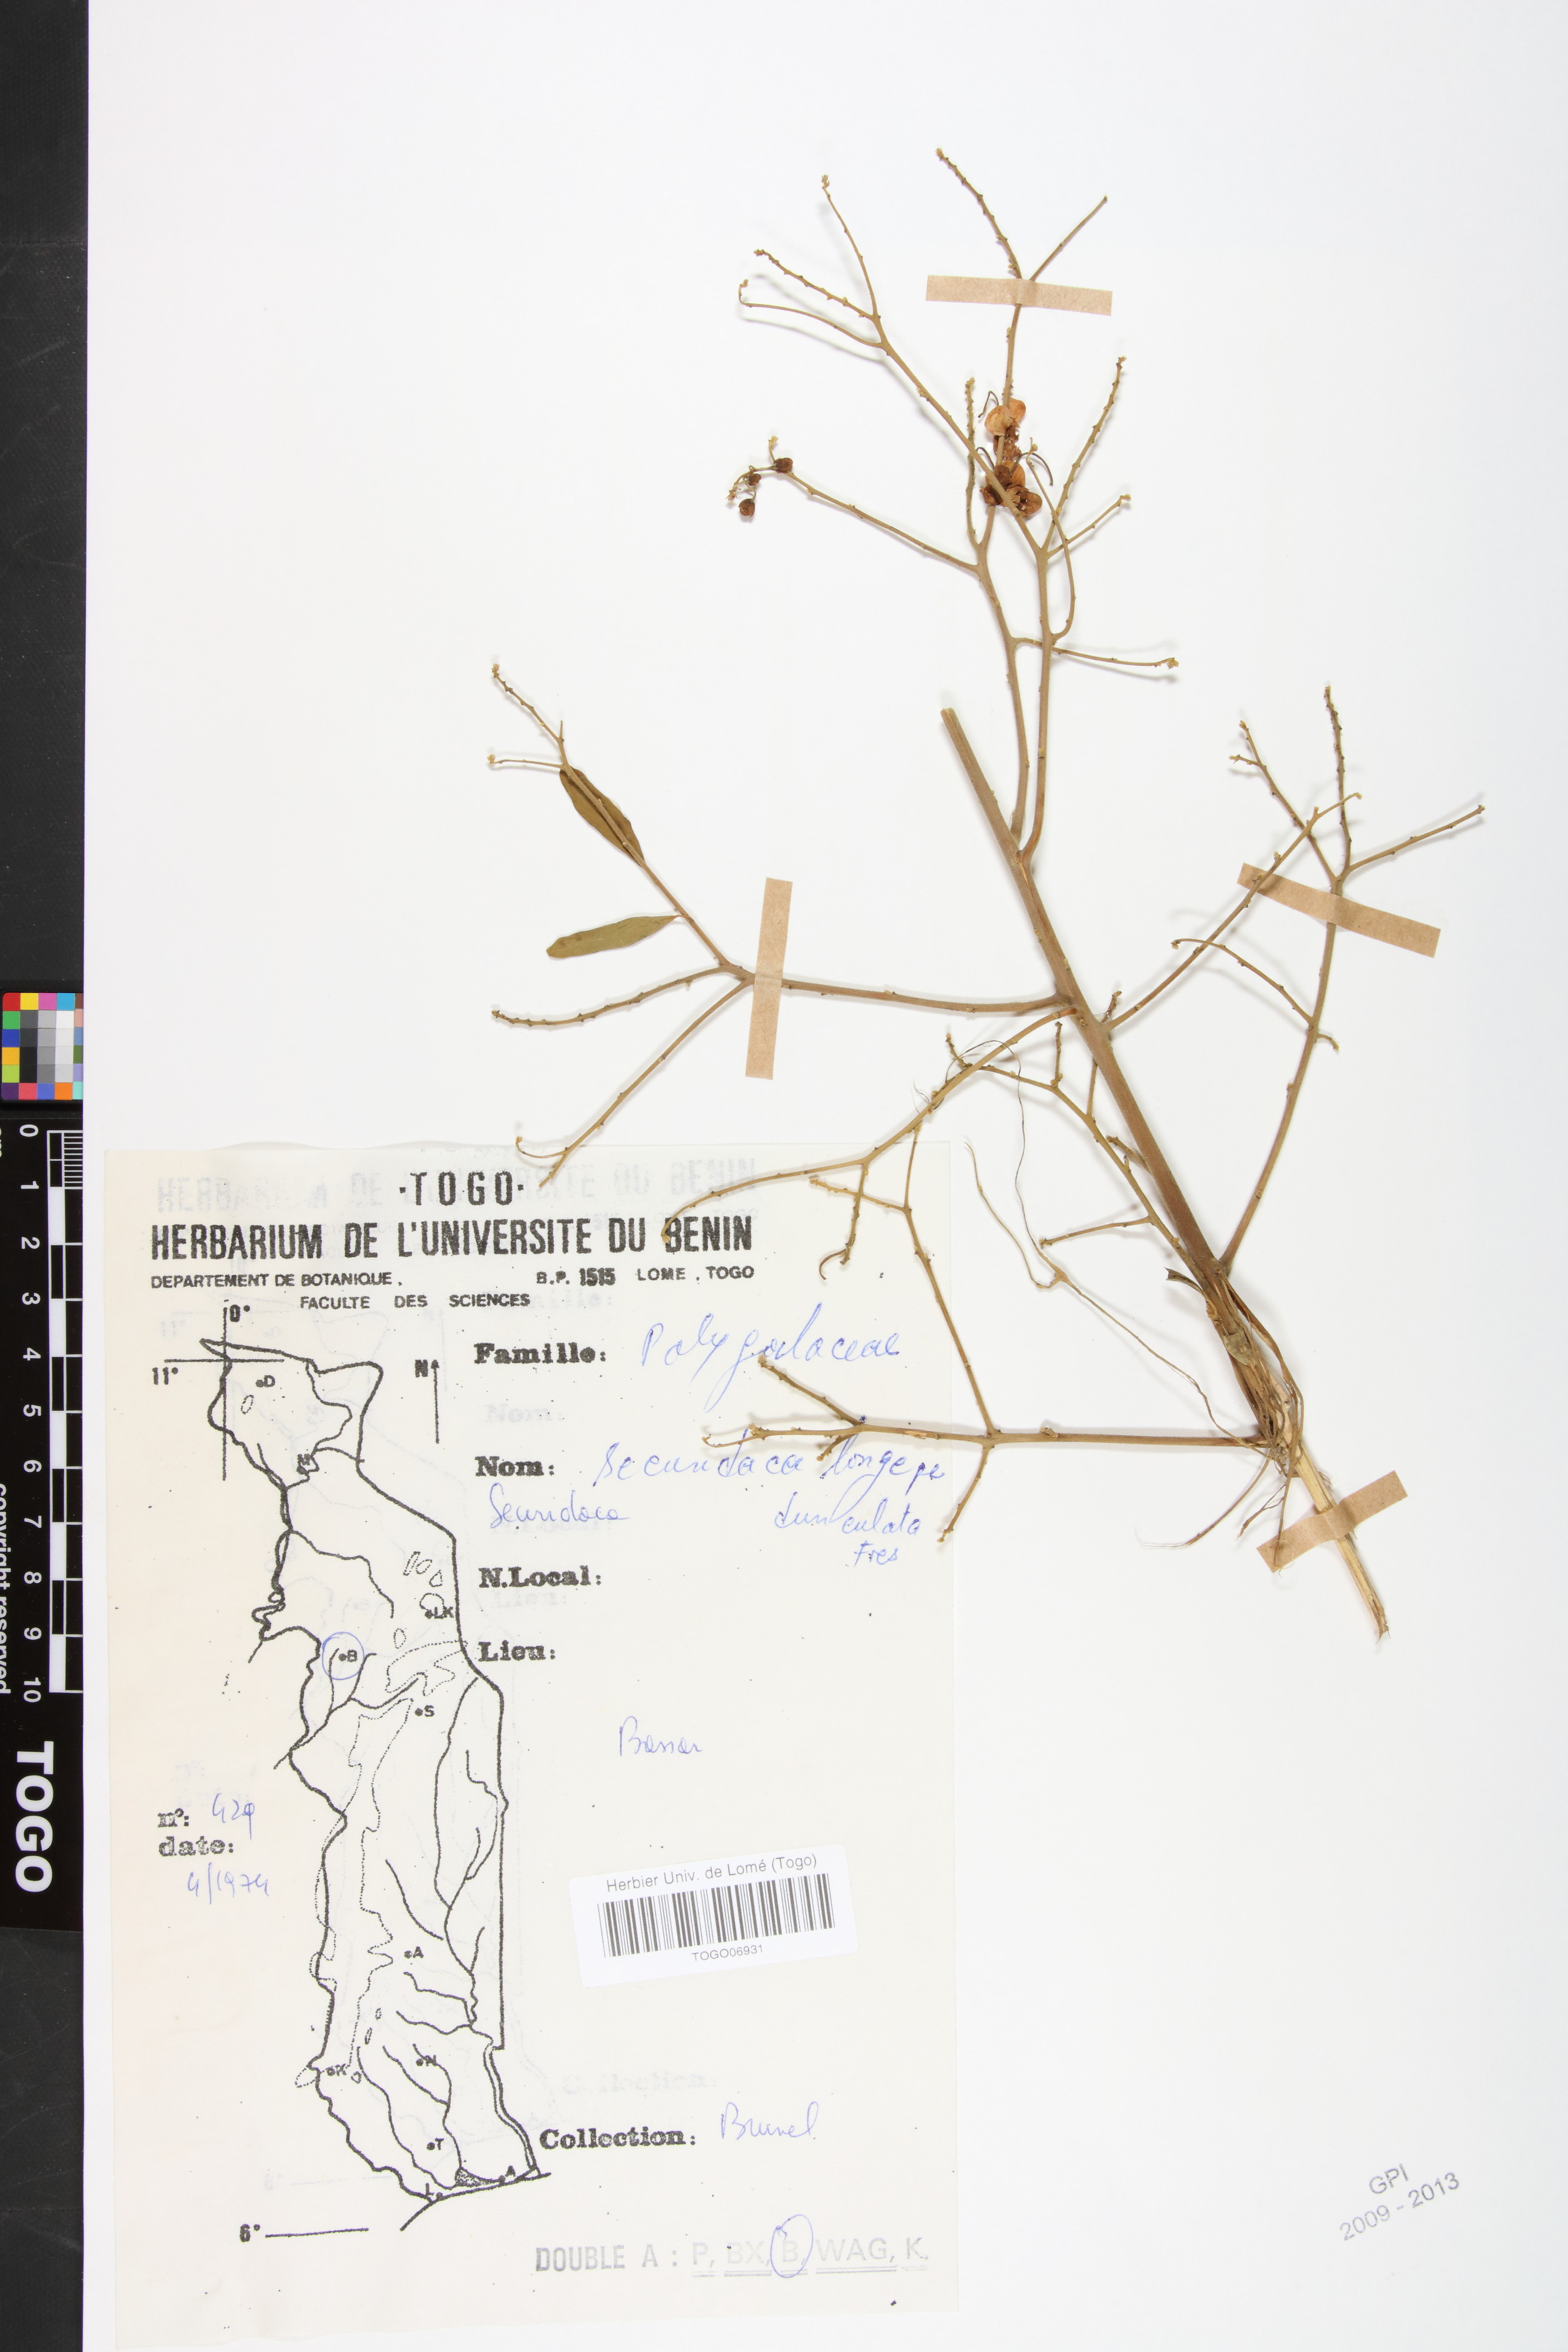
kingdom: Plantae
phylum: Tracheophyta
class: Magnoliopsida
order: Fabales
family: Polygalaceae
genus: Securidaca
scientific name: Securidaca longepedunculata
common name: Violet tree
